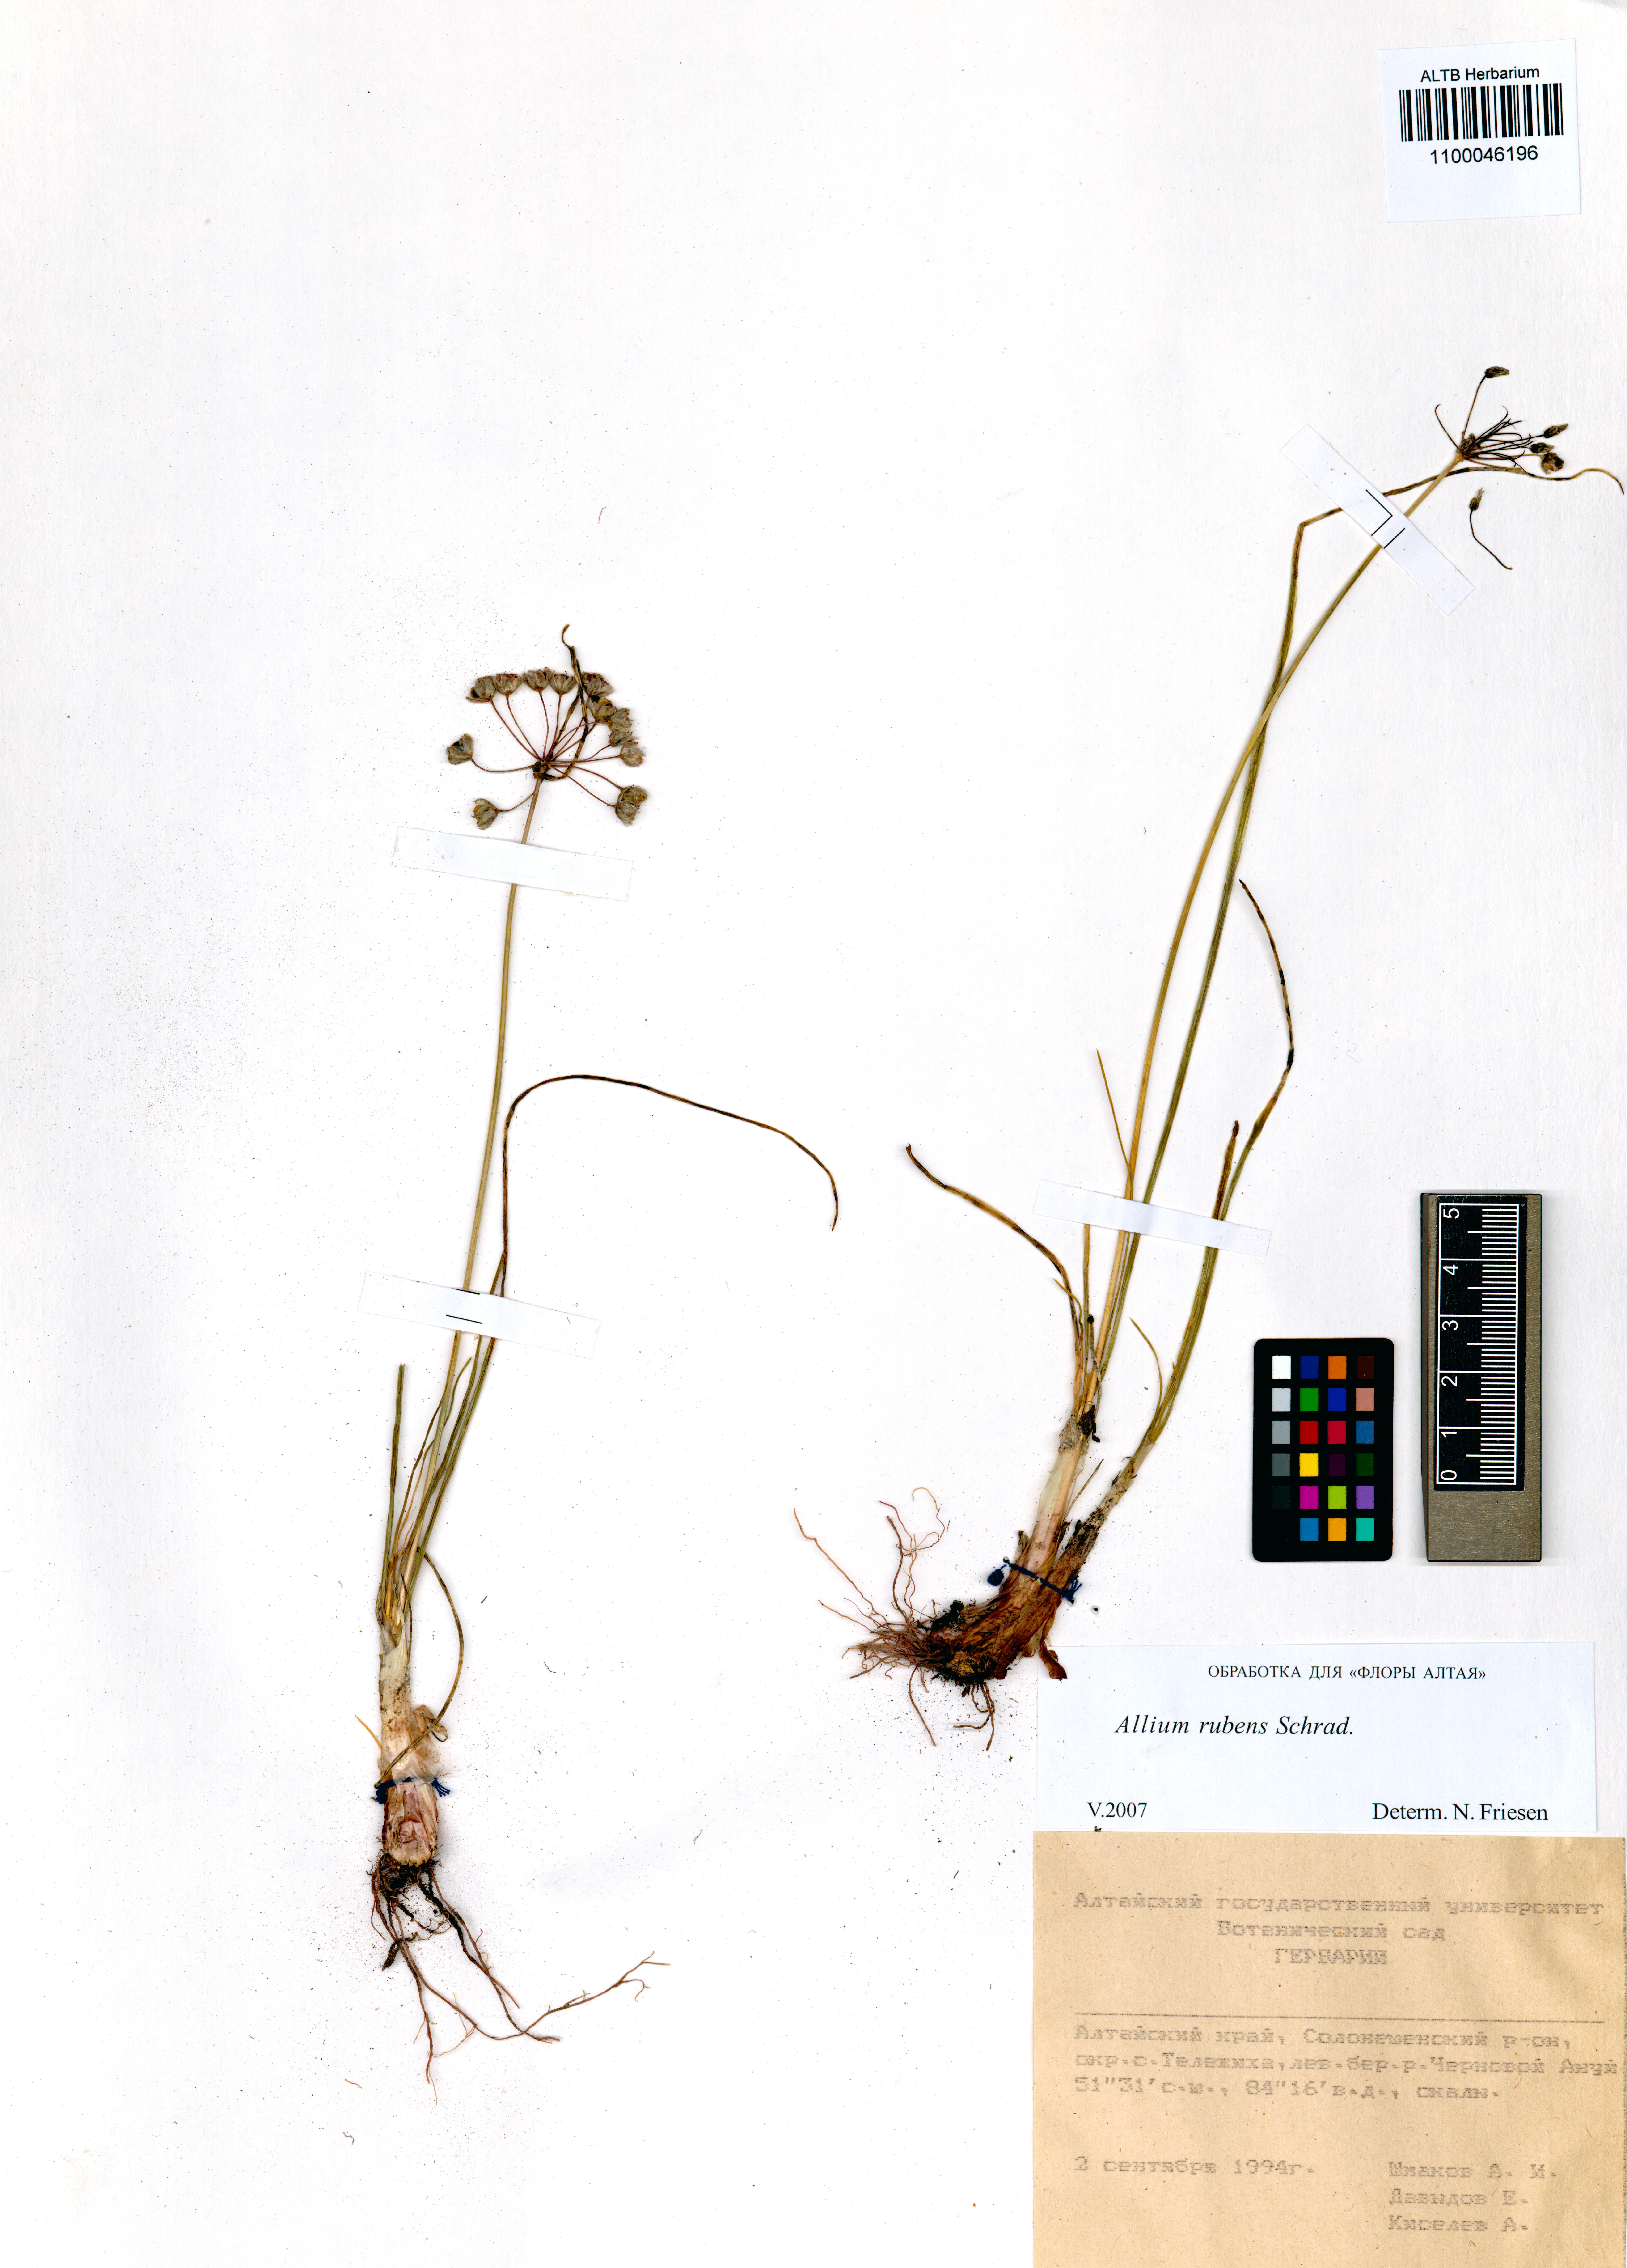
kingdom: Plantae
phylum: Tracheophyta
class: Liliopsida
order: Asparagales
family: Amaryllidaceae
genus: Allium
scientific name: Allium rubens
